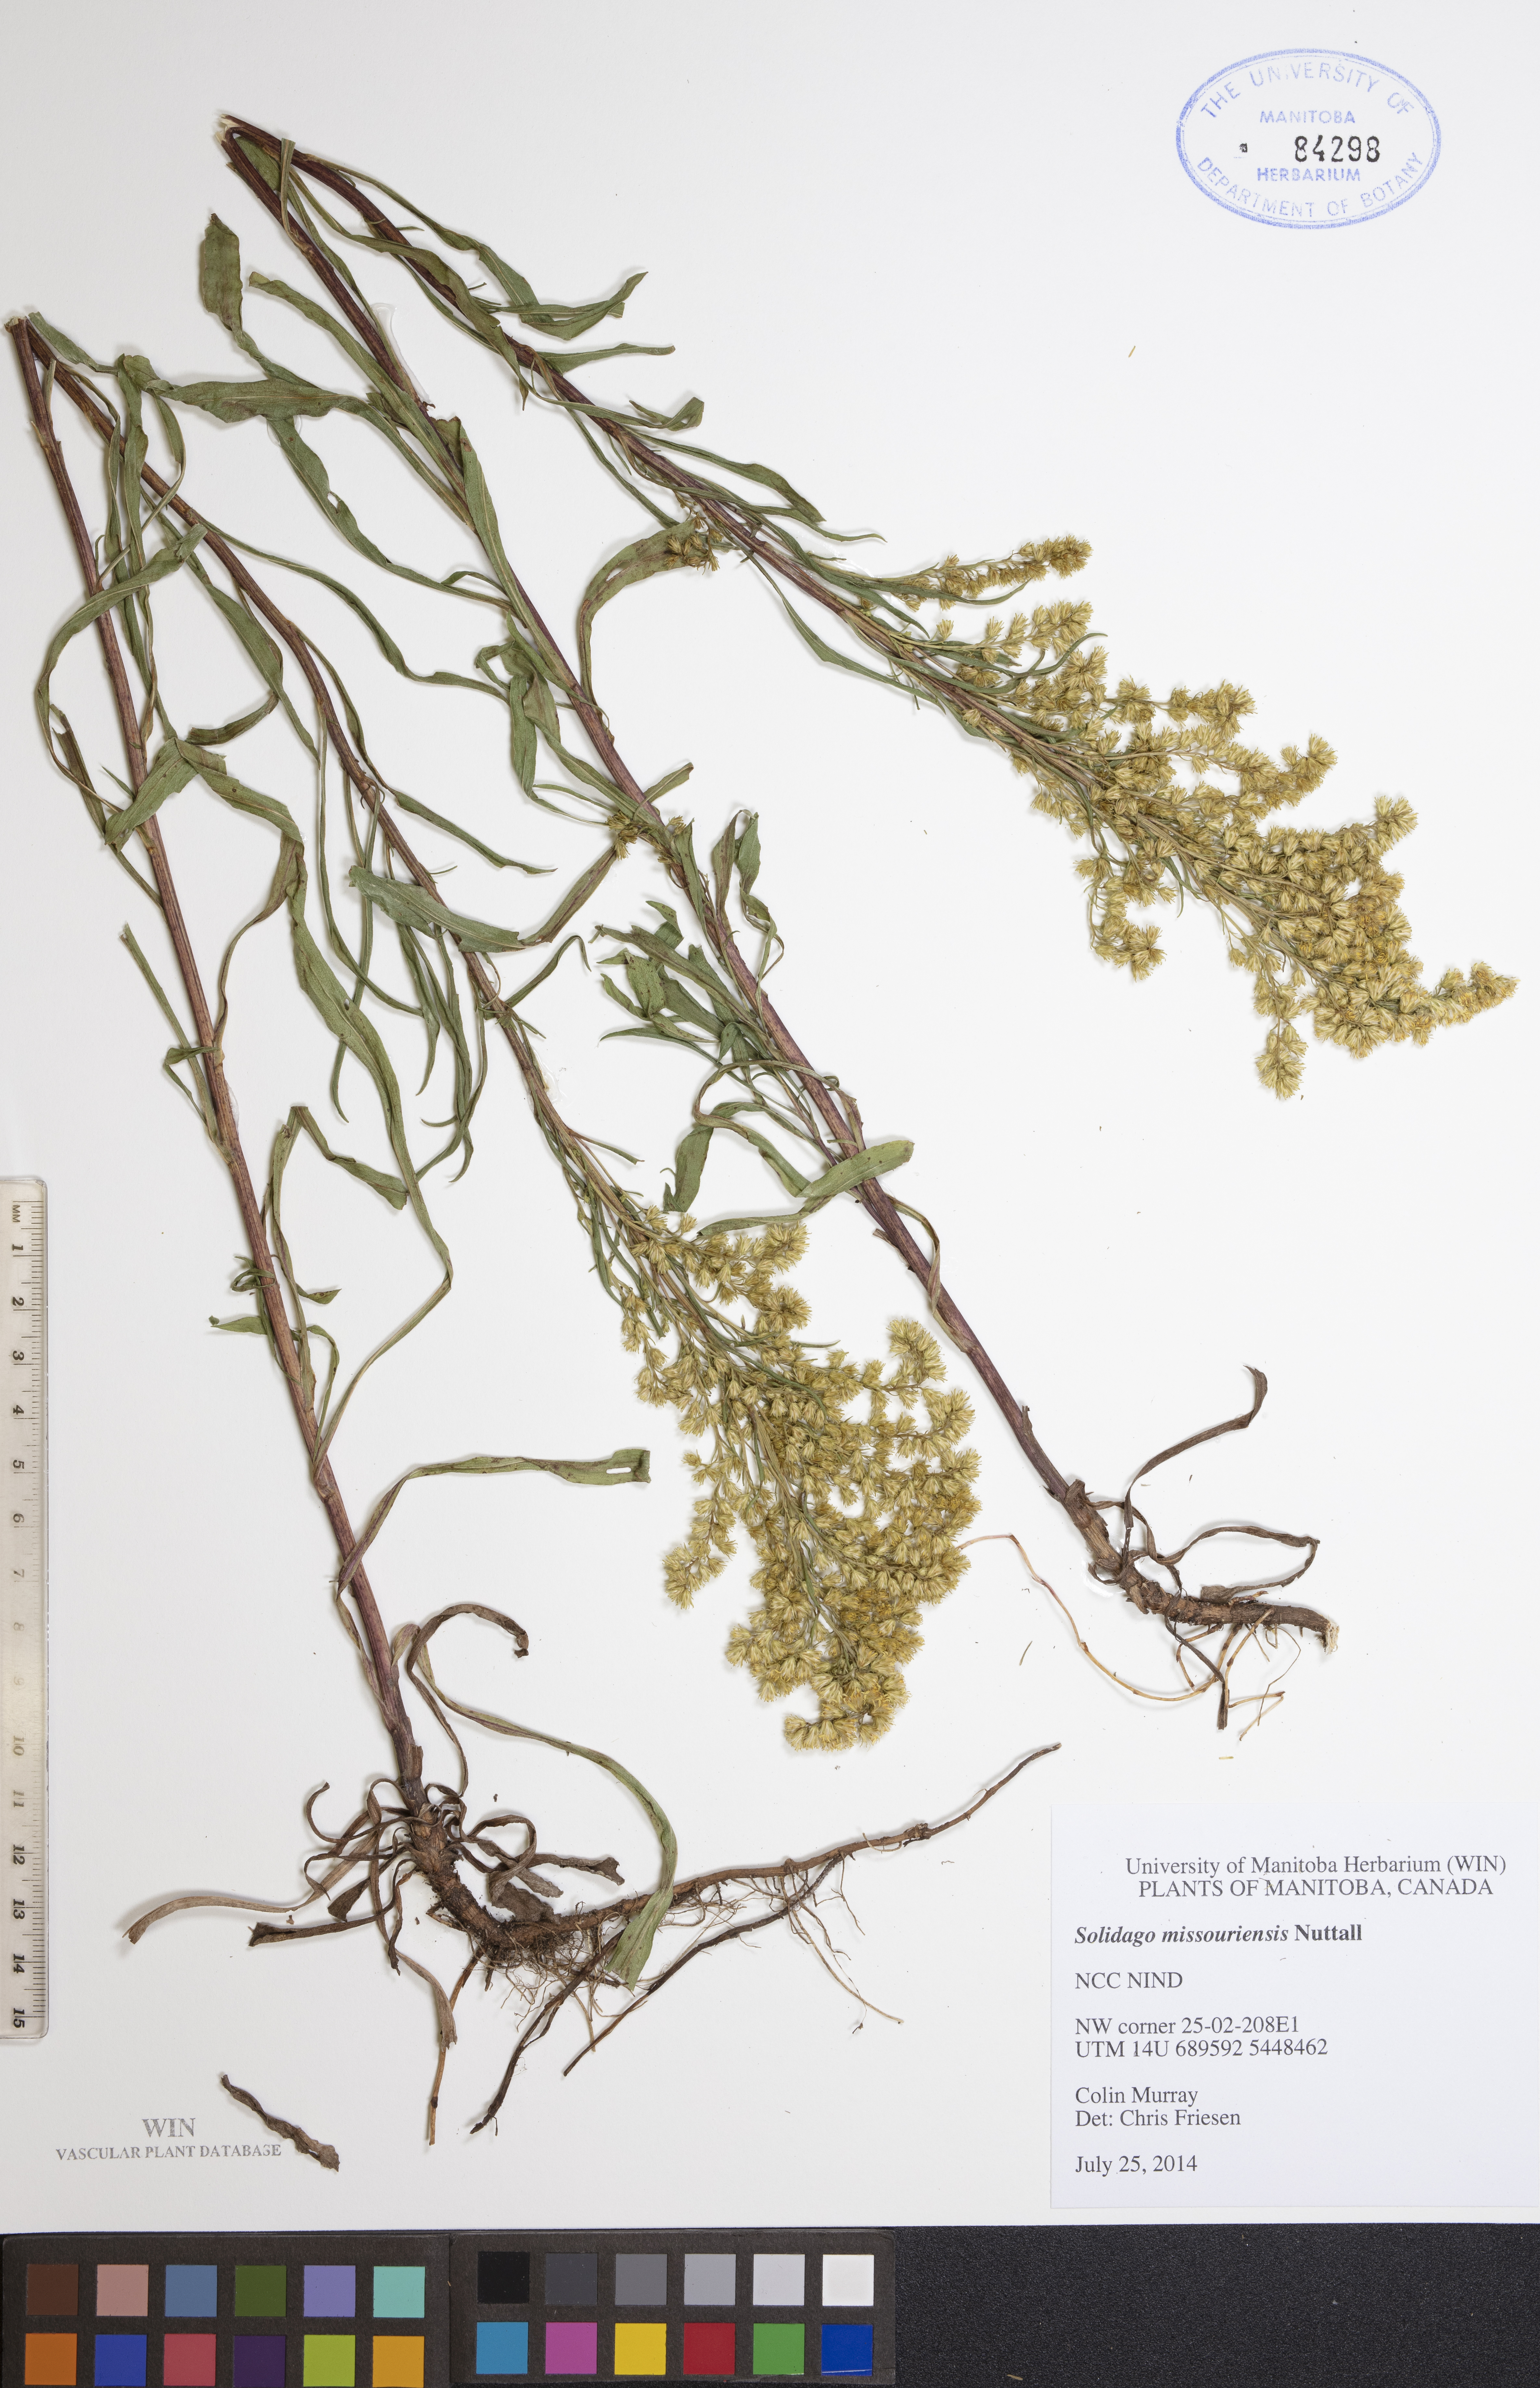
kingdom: Plantae
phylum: Tracheophyta
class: Magnoliopsida
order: Asterales
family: Asteraceae
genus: Solidago
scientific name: Solidago missouriensis
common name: Prairie goldenrod
